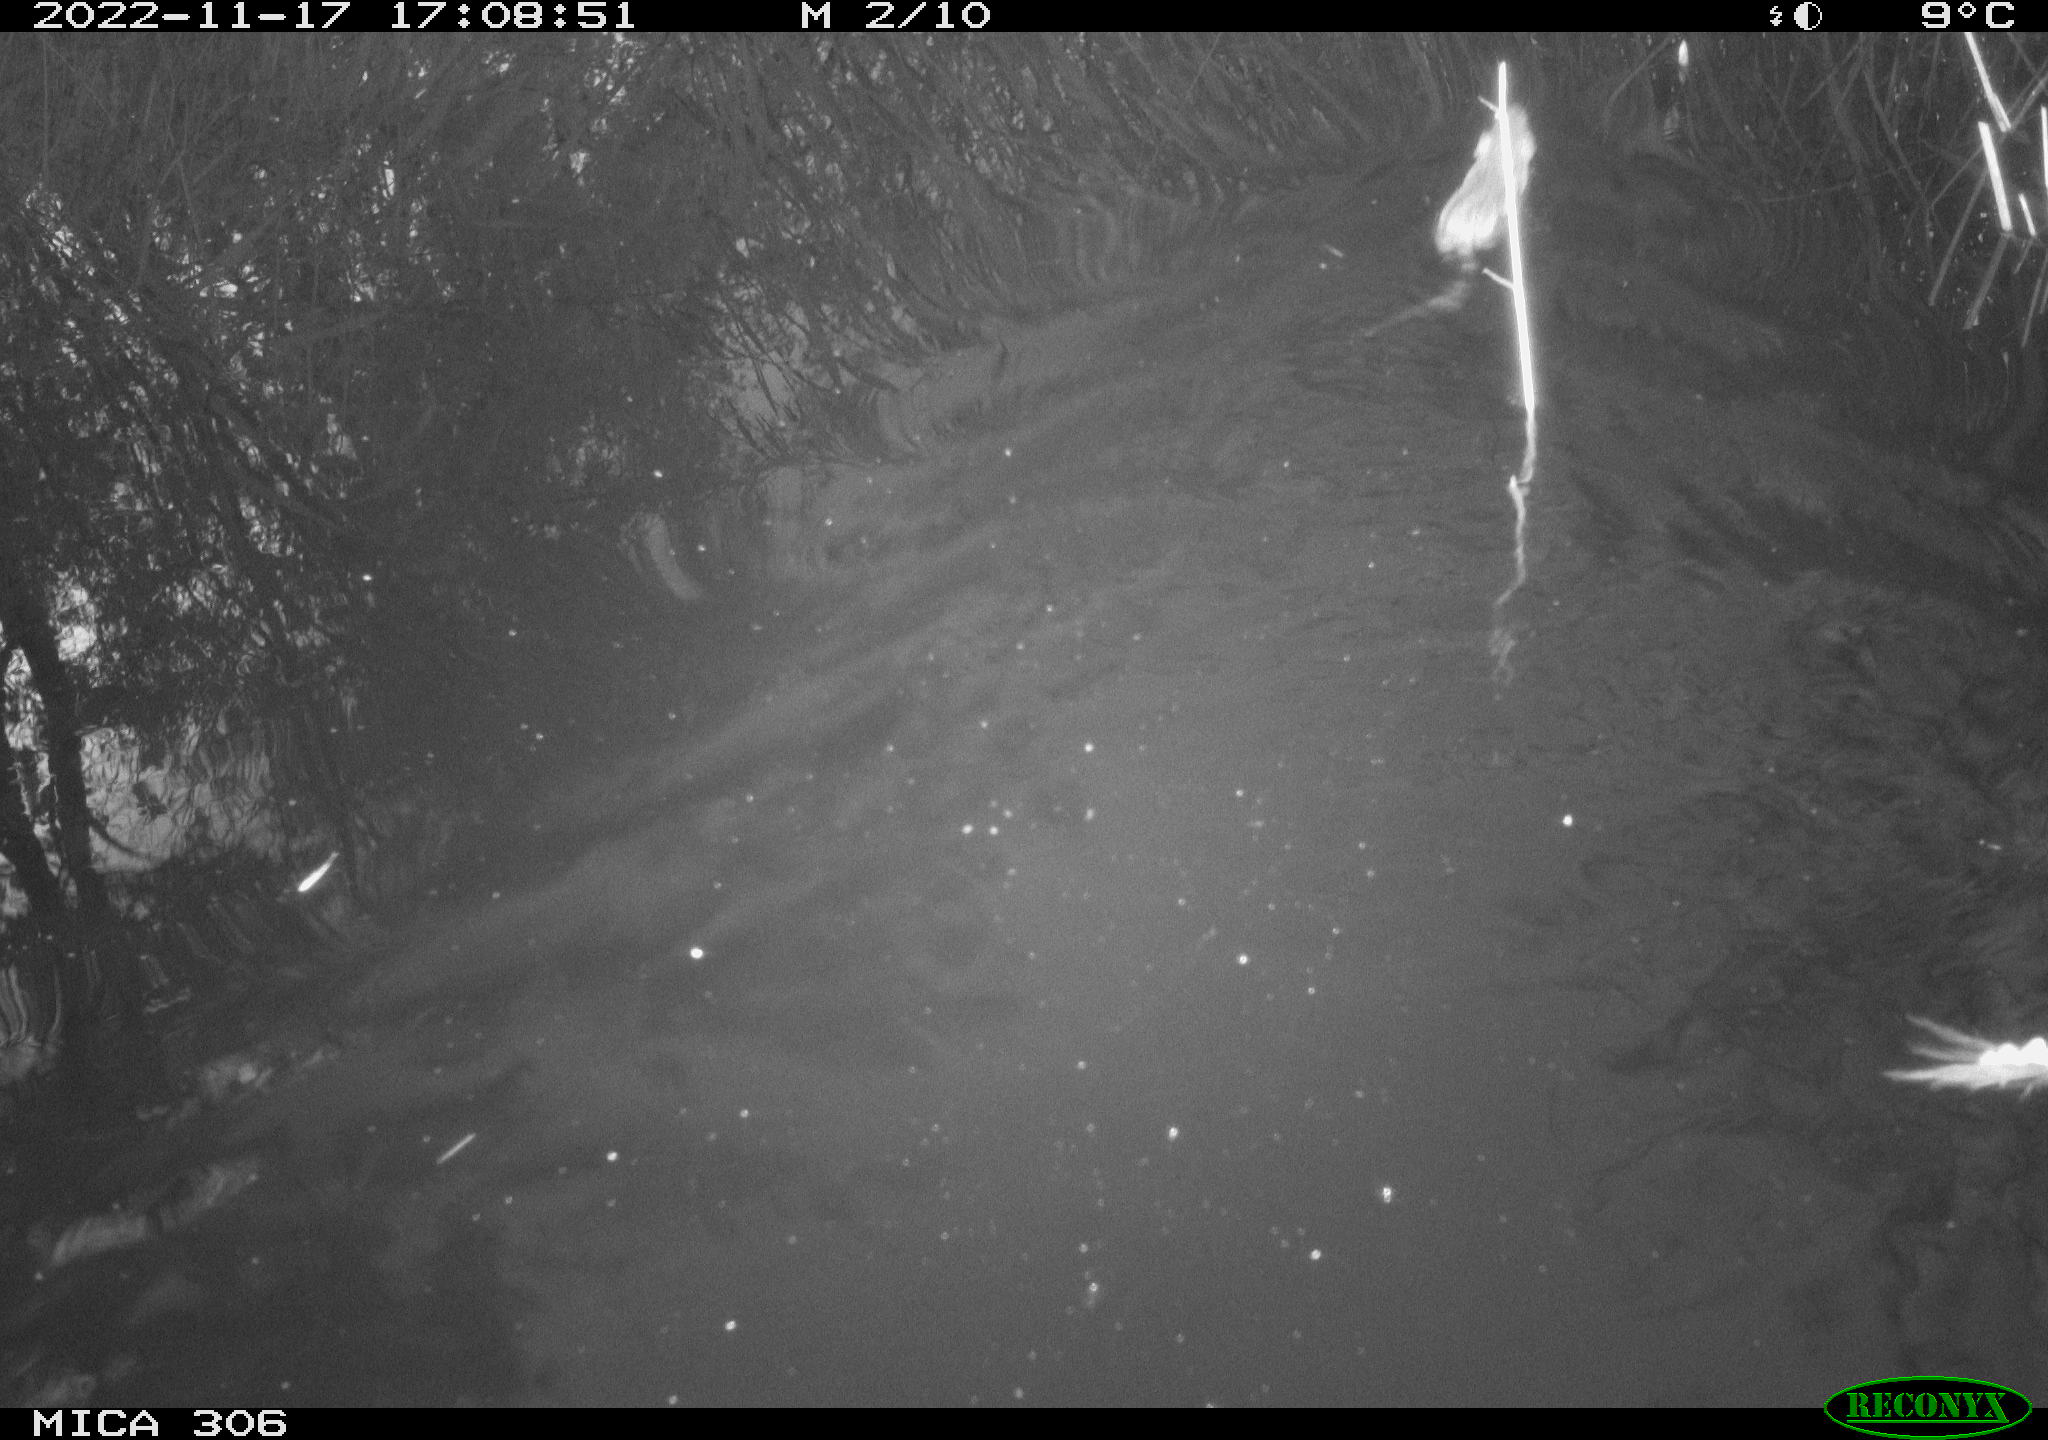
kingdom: Animalia
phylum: Chordata
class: Mammalia
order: Rodentia
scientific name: Rodentia
